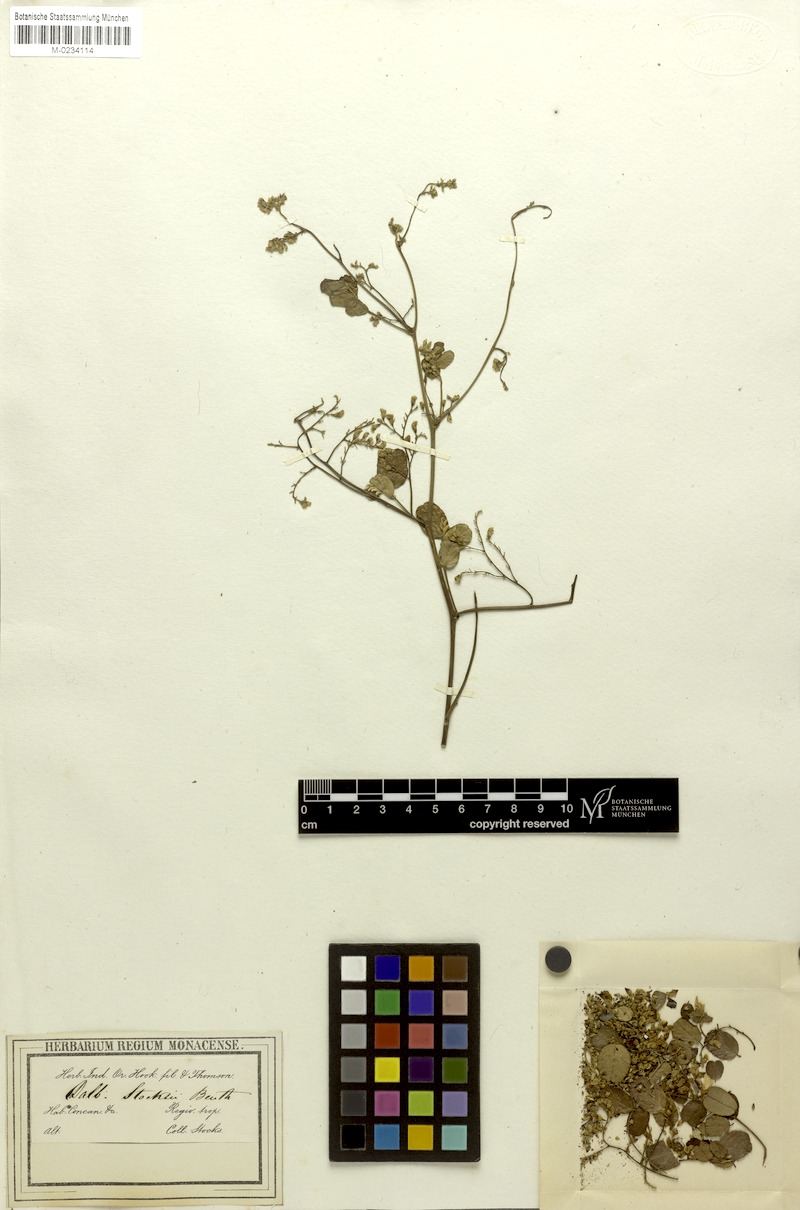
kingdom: Plantae
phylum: Tracheophyta
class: Magnoliopsida
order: Fabales
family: Fabaceae
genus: Dalbergia
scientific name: Dalbergia melanoxylon
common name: African blackwood
